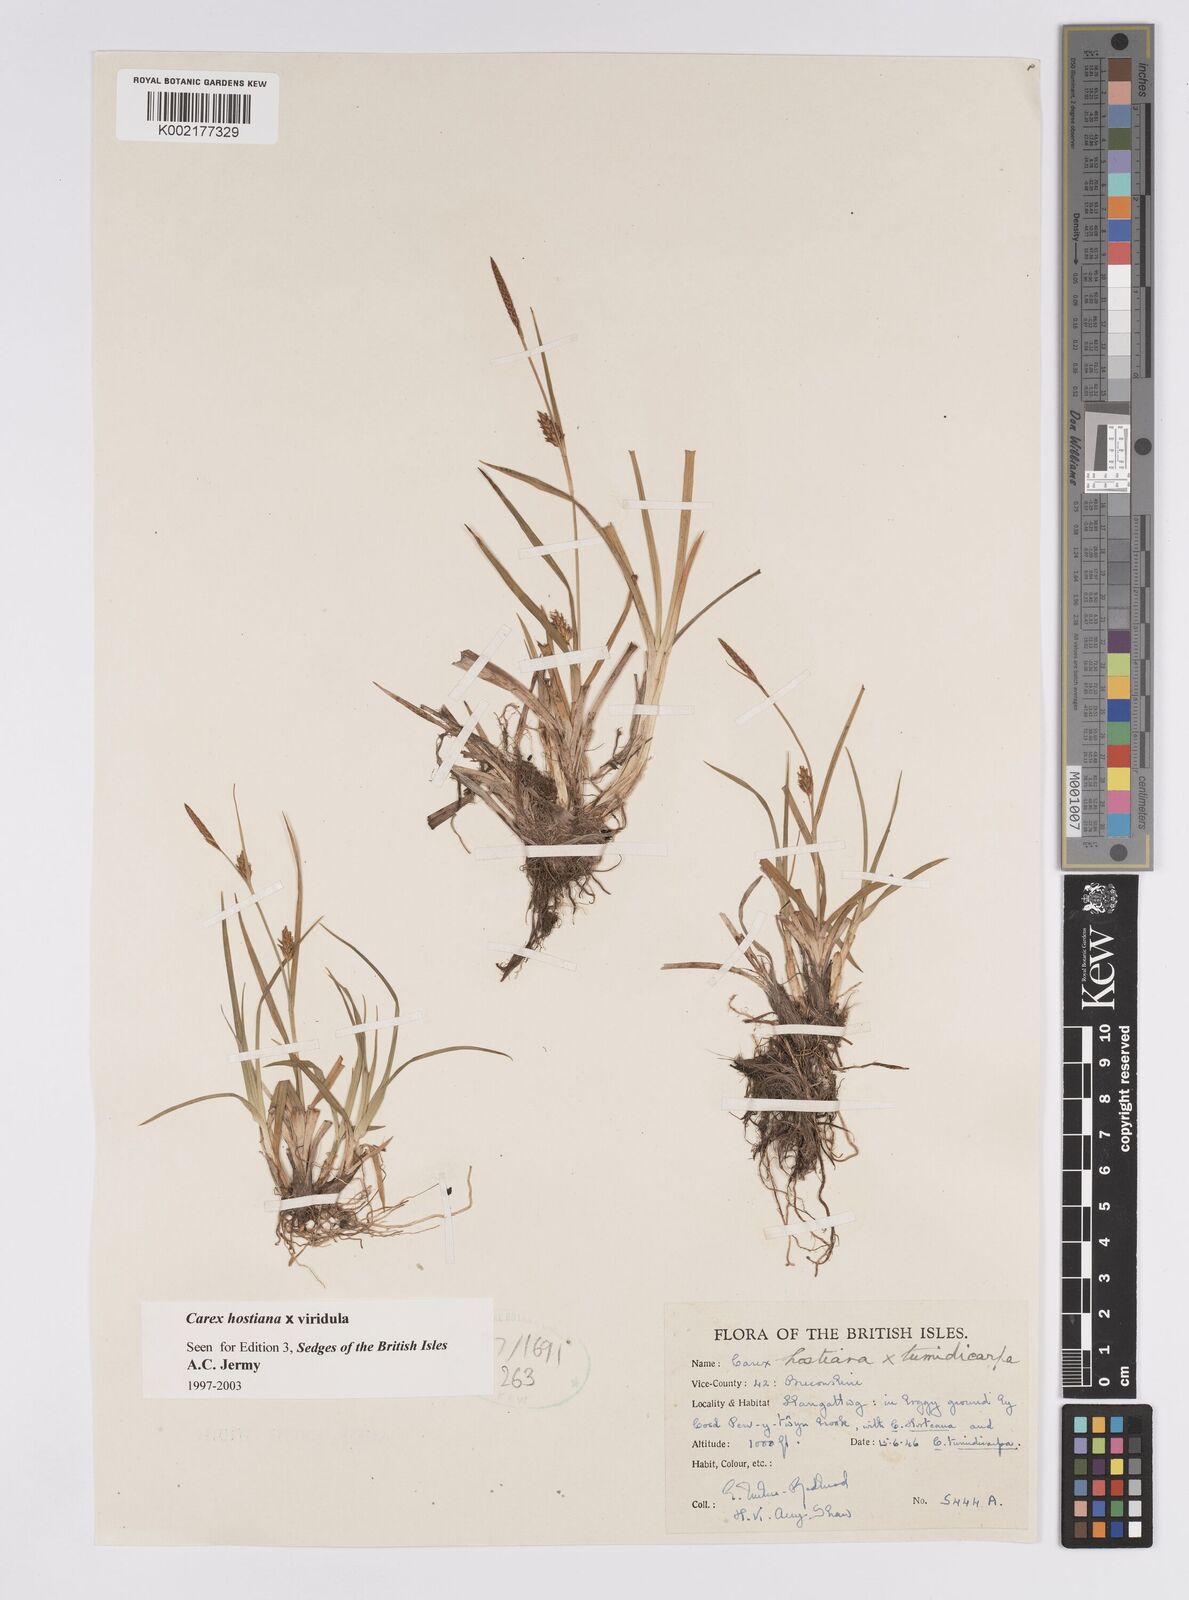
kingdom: Plantae
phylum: Tracheophyta
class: Liliopsida
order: Poales
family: Cyperaceae
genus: Carex
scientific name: Carex hostiana
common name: Tawny sedge
